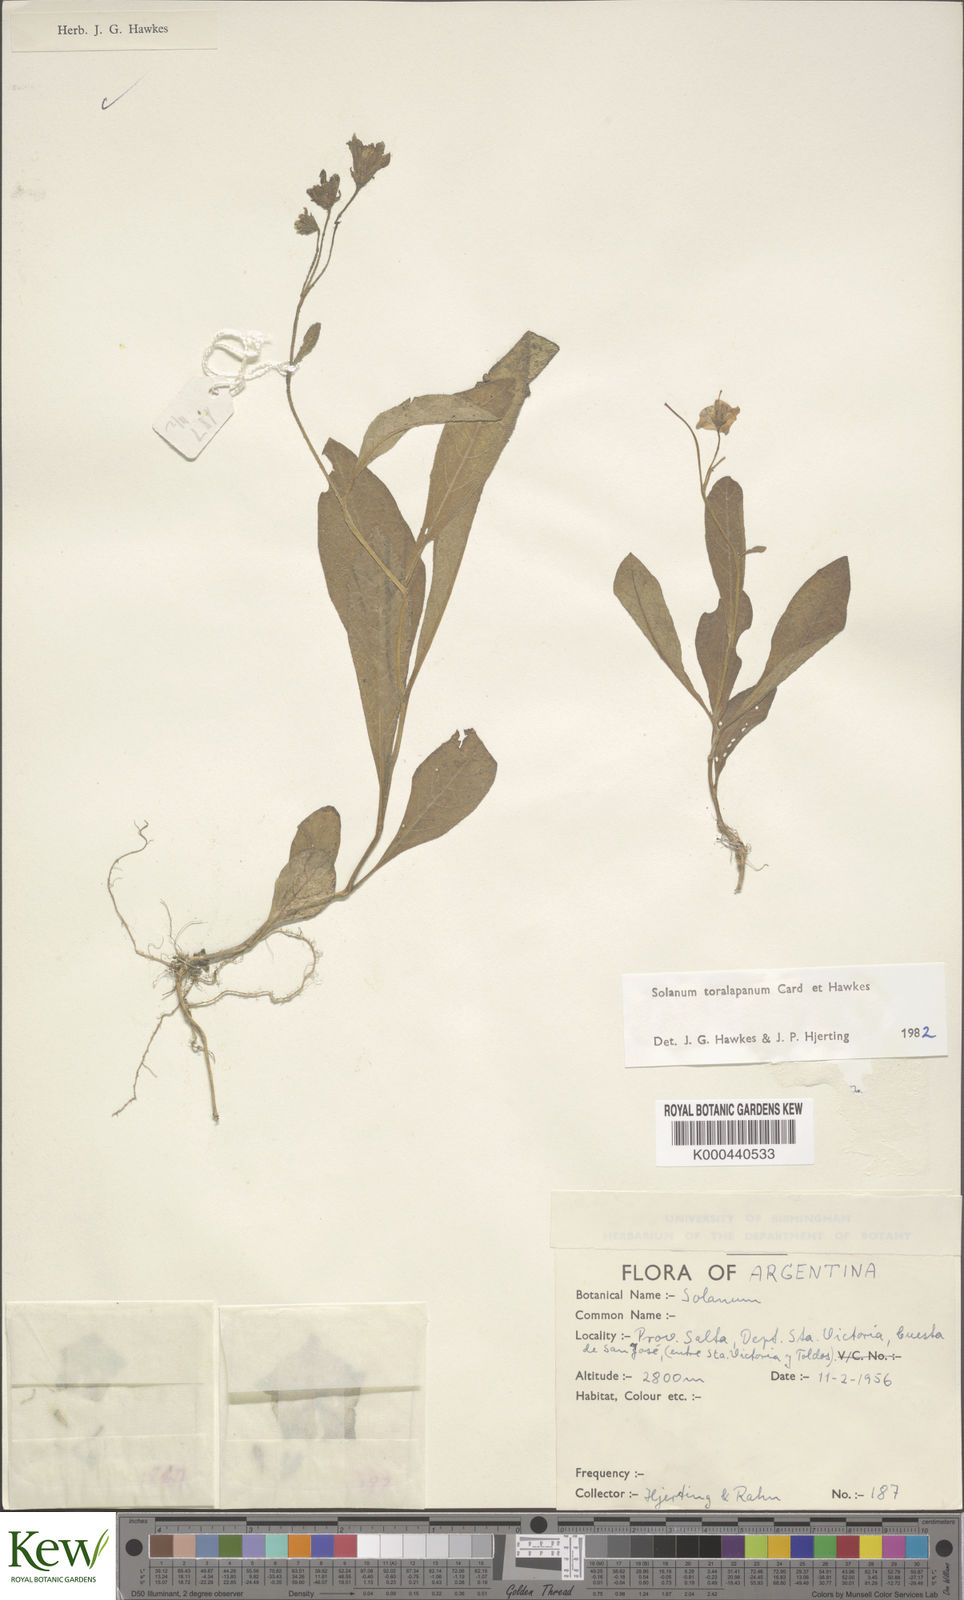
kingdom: Plantae
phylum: Tracheophyta
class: Magnoliopsida
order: Solanales
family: Solanaceae
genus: Solanum
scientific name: Solanum
